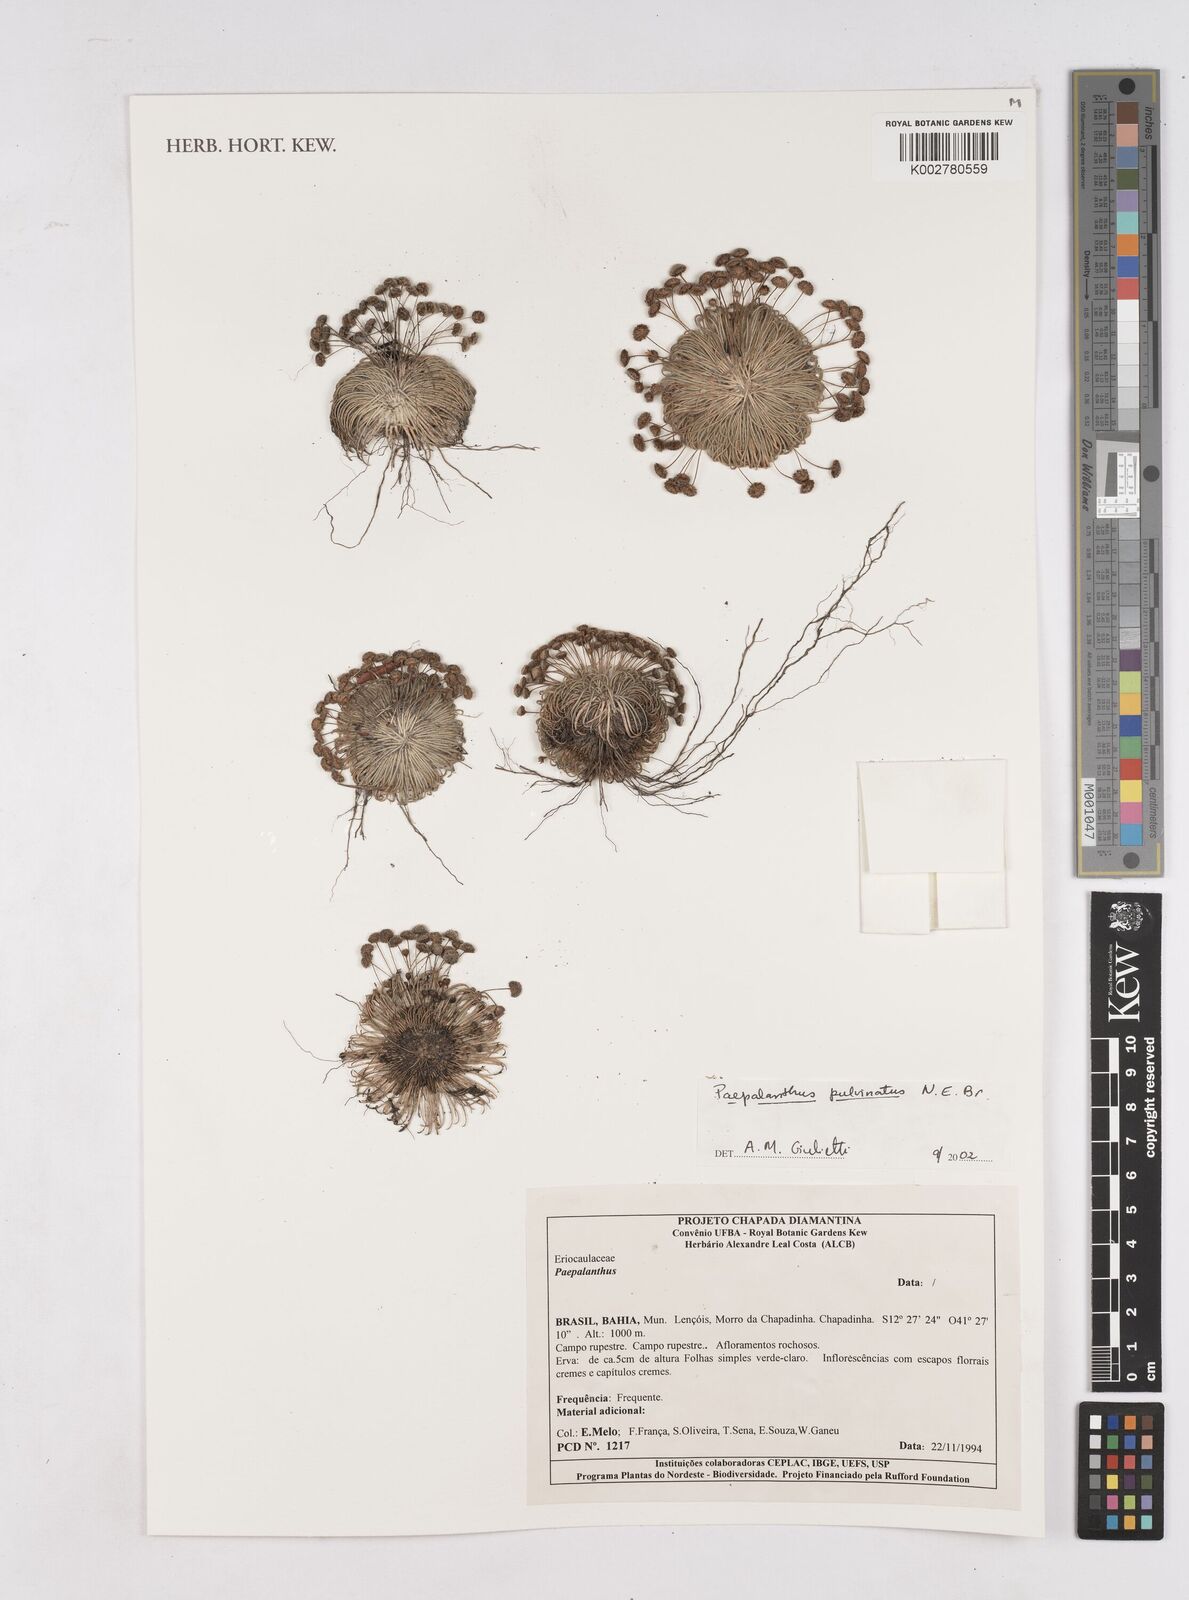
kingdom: Plantae
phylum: Tracheophyta
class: Liliopsida
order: Poales
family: Eriocaulaceae
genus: Paepalanthus
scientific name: Paepalanthus pulvinatus
